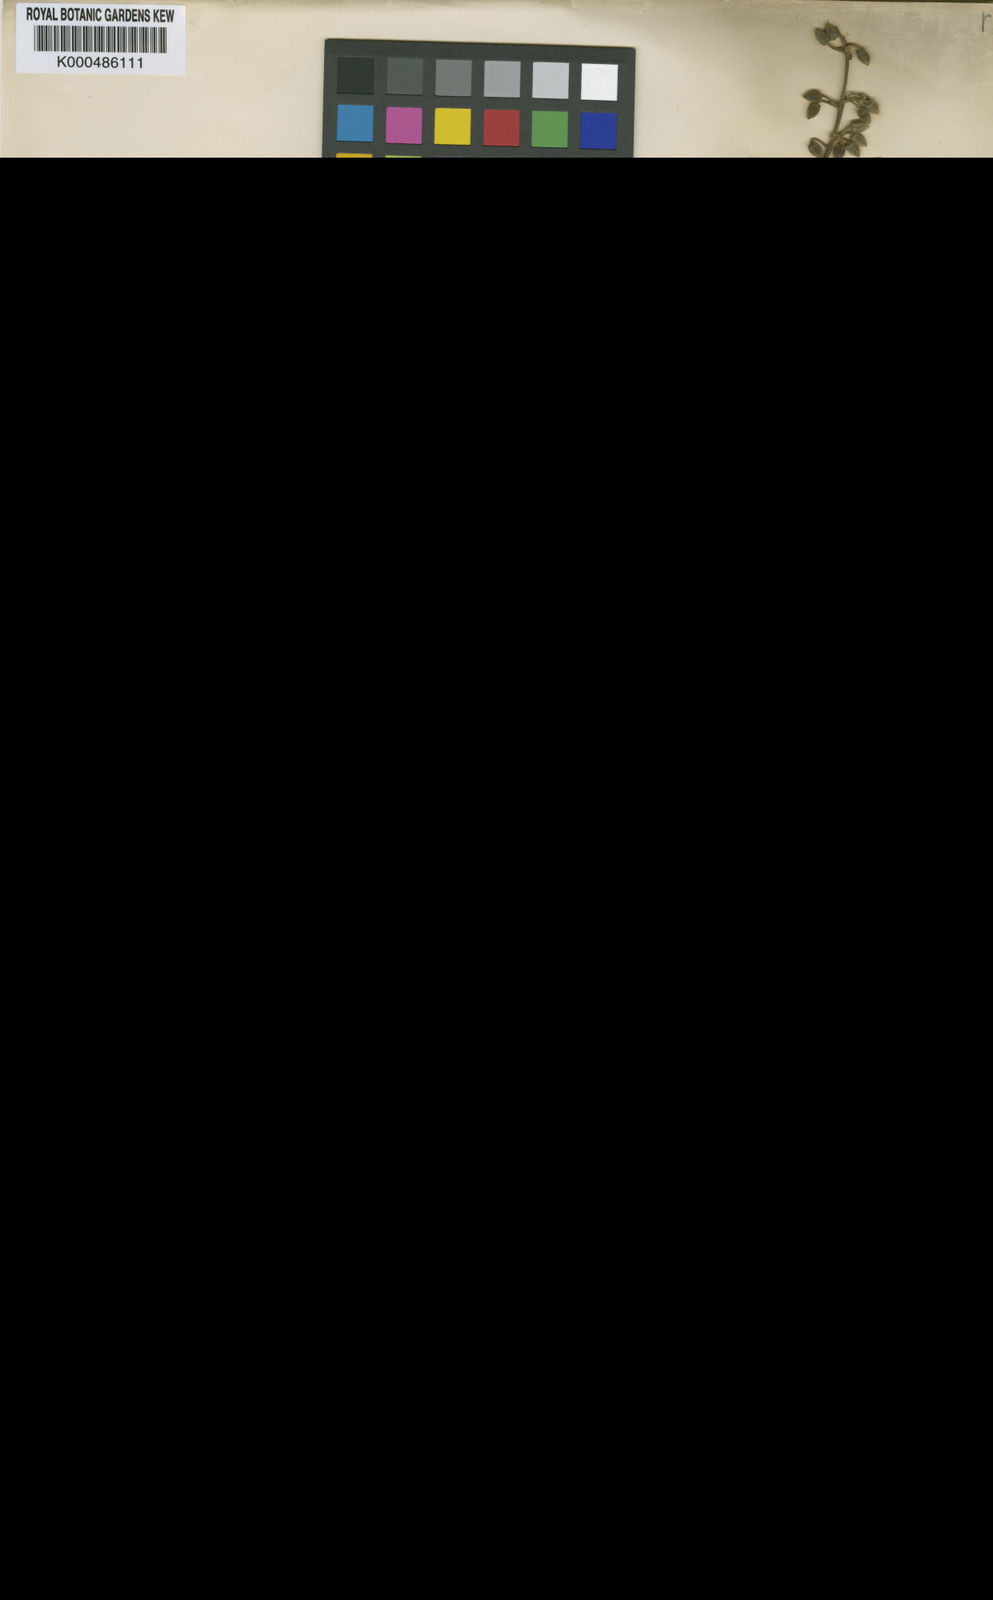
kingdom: Plantae
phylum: Tracheophyta
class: Magnoliopsida
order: Oxalidales
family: Cunoniaceae
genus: Lamanonia
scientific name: Lamanonia speciosa
